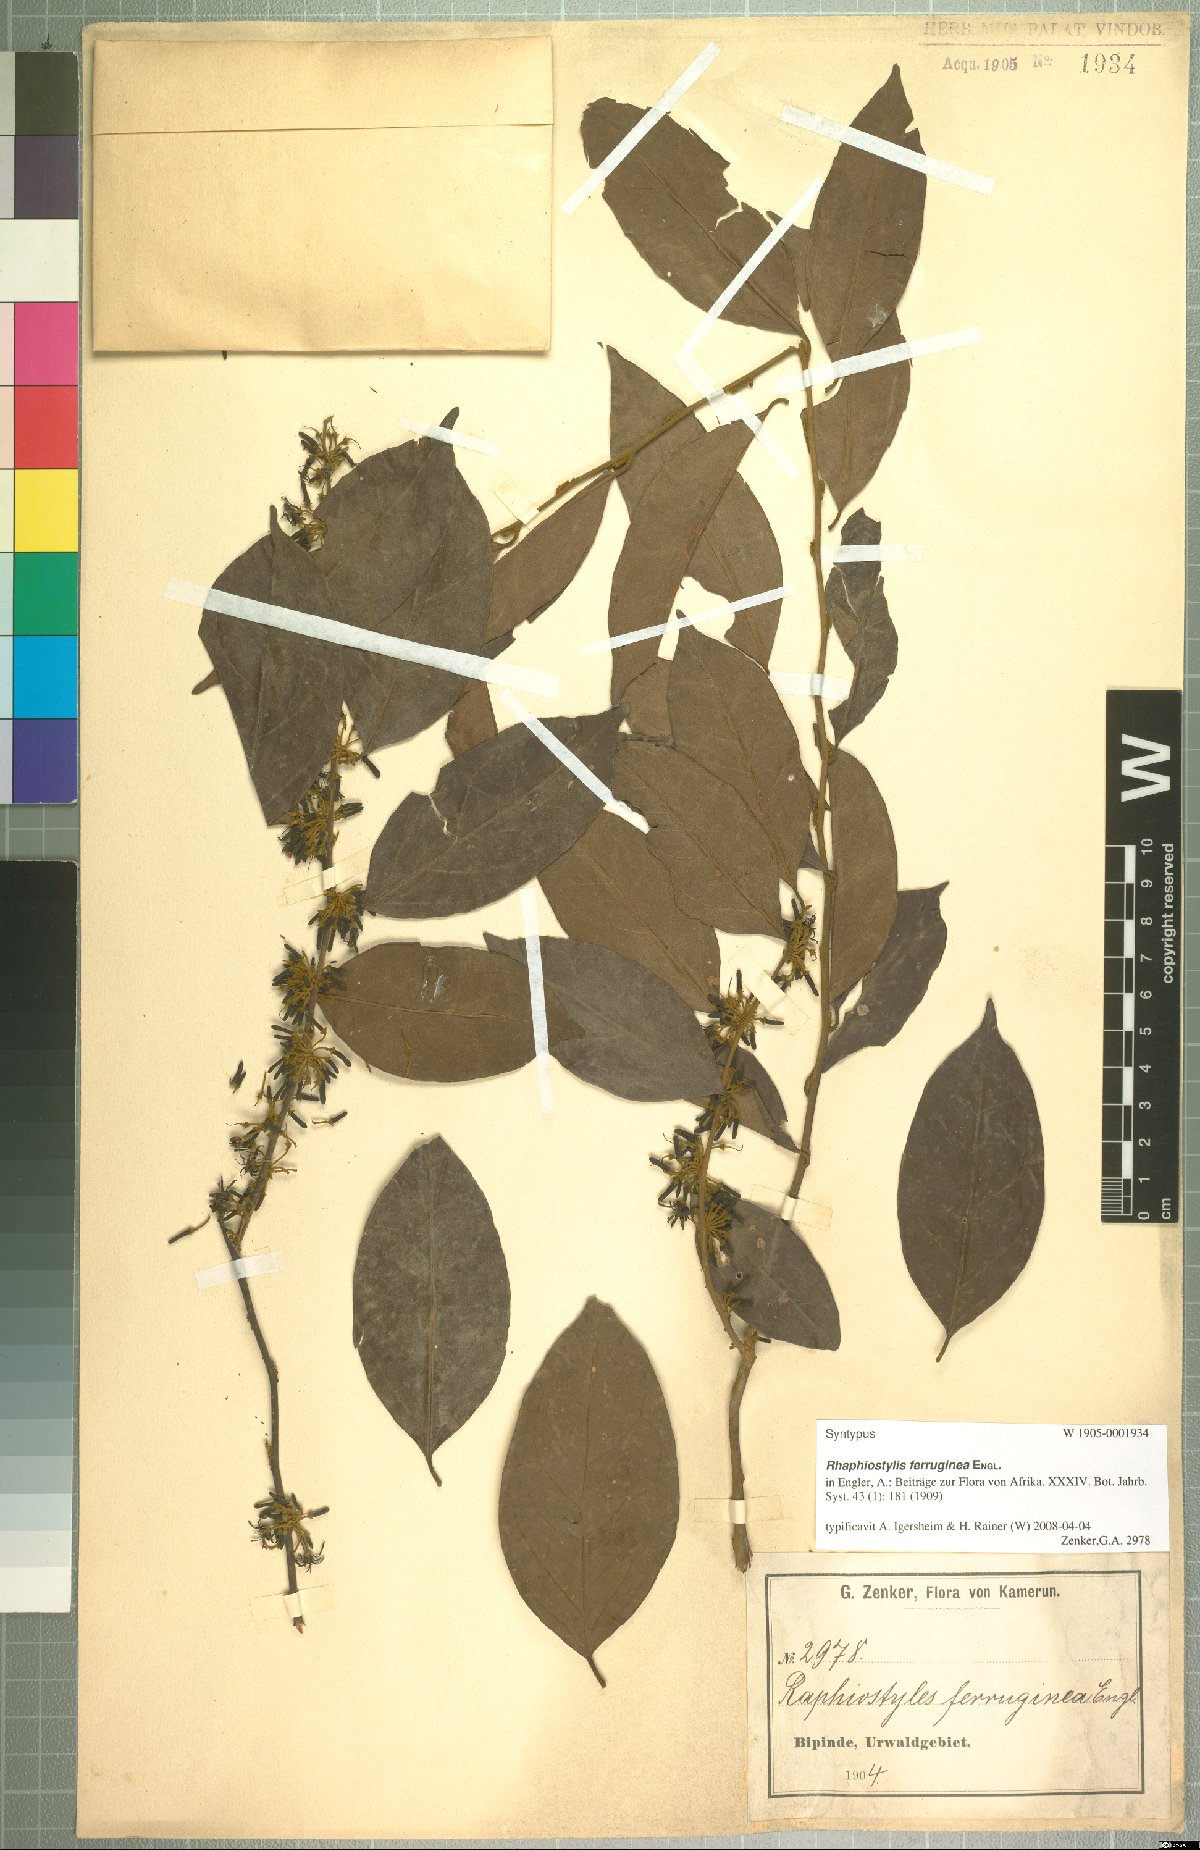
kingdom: Plantae
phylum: Tracheophyta
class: Magnoliopsida
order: Metteniusales
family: Metteniusaceae
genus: Rhaphiostylis
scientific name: Rhaphiostylis ferruginea
